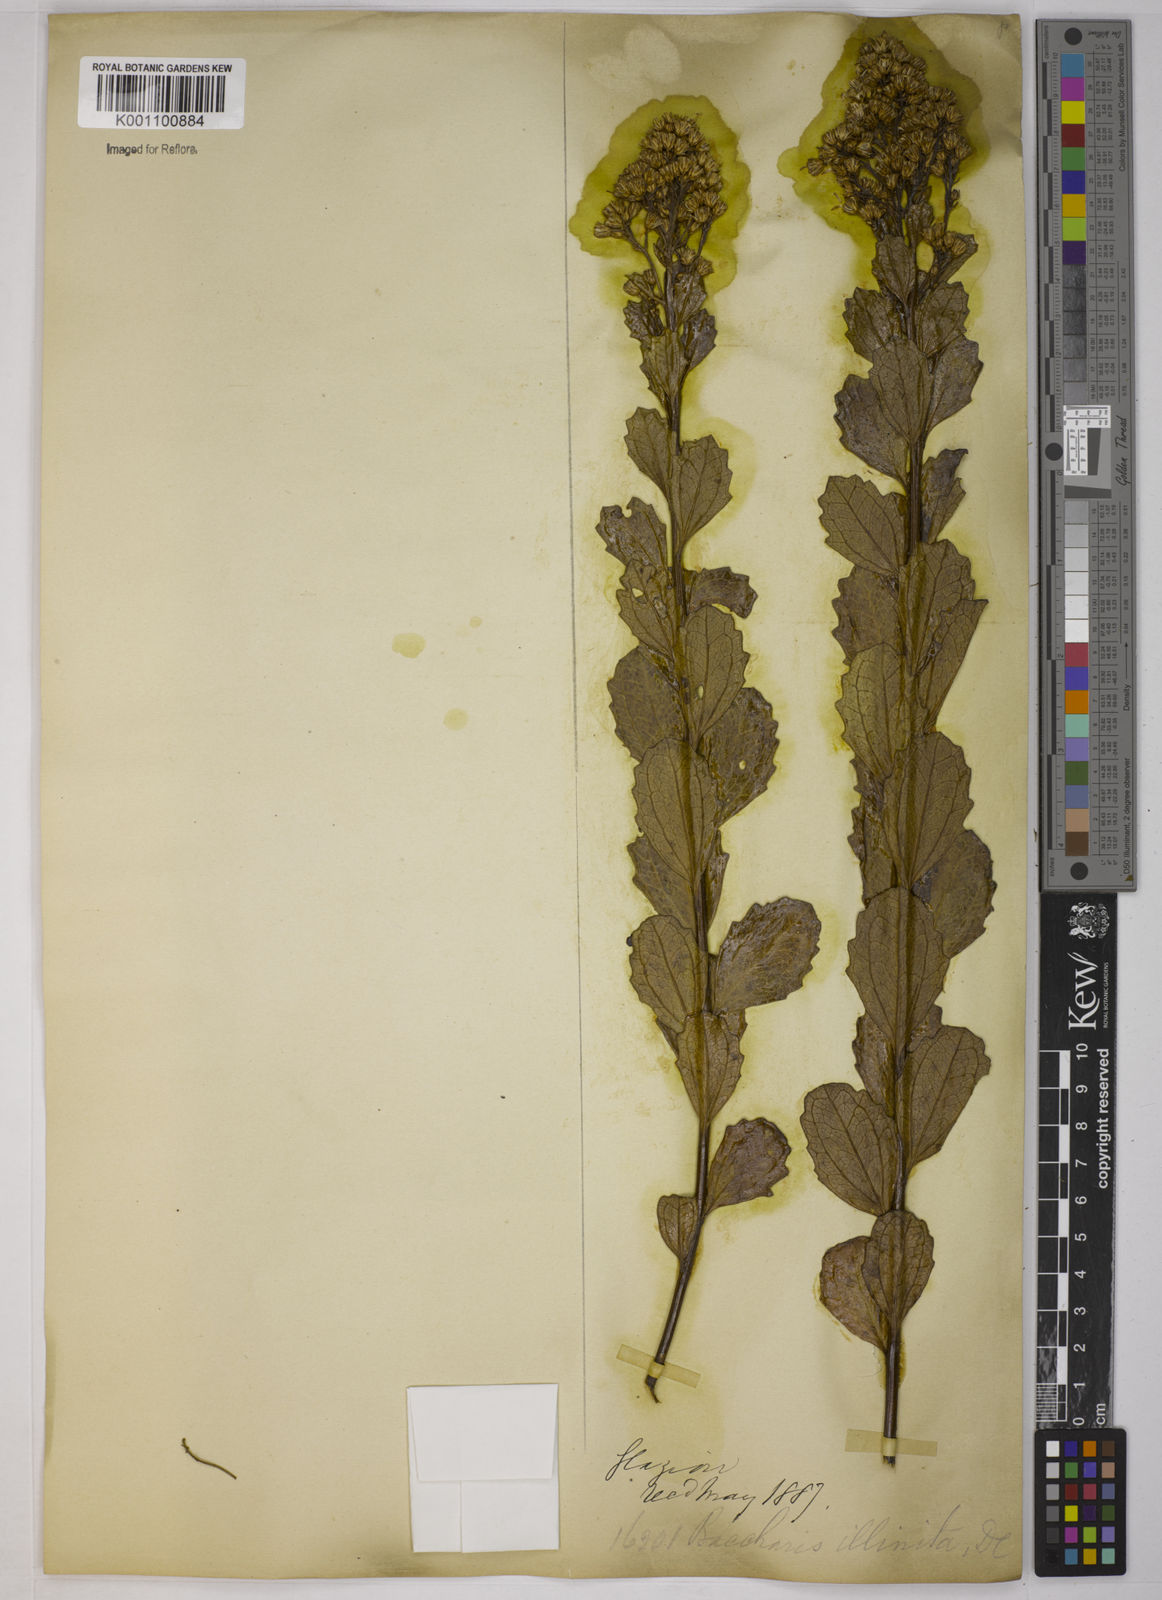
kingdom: Plantae
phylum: Tracheophyta
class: Magnoliopsida
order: Asterales
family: Asteraceae
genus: Baccharis
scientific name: Baccharis tridentata
